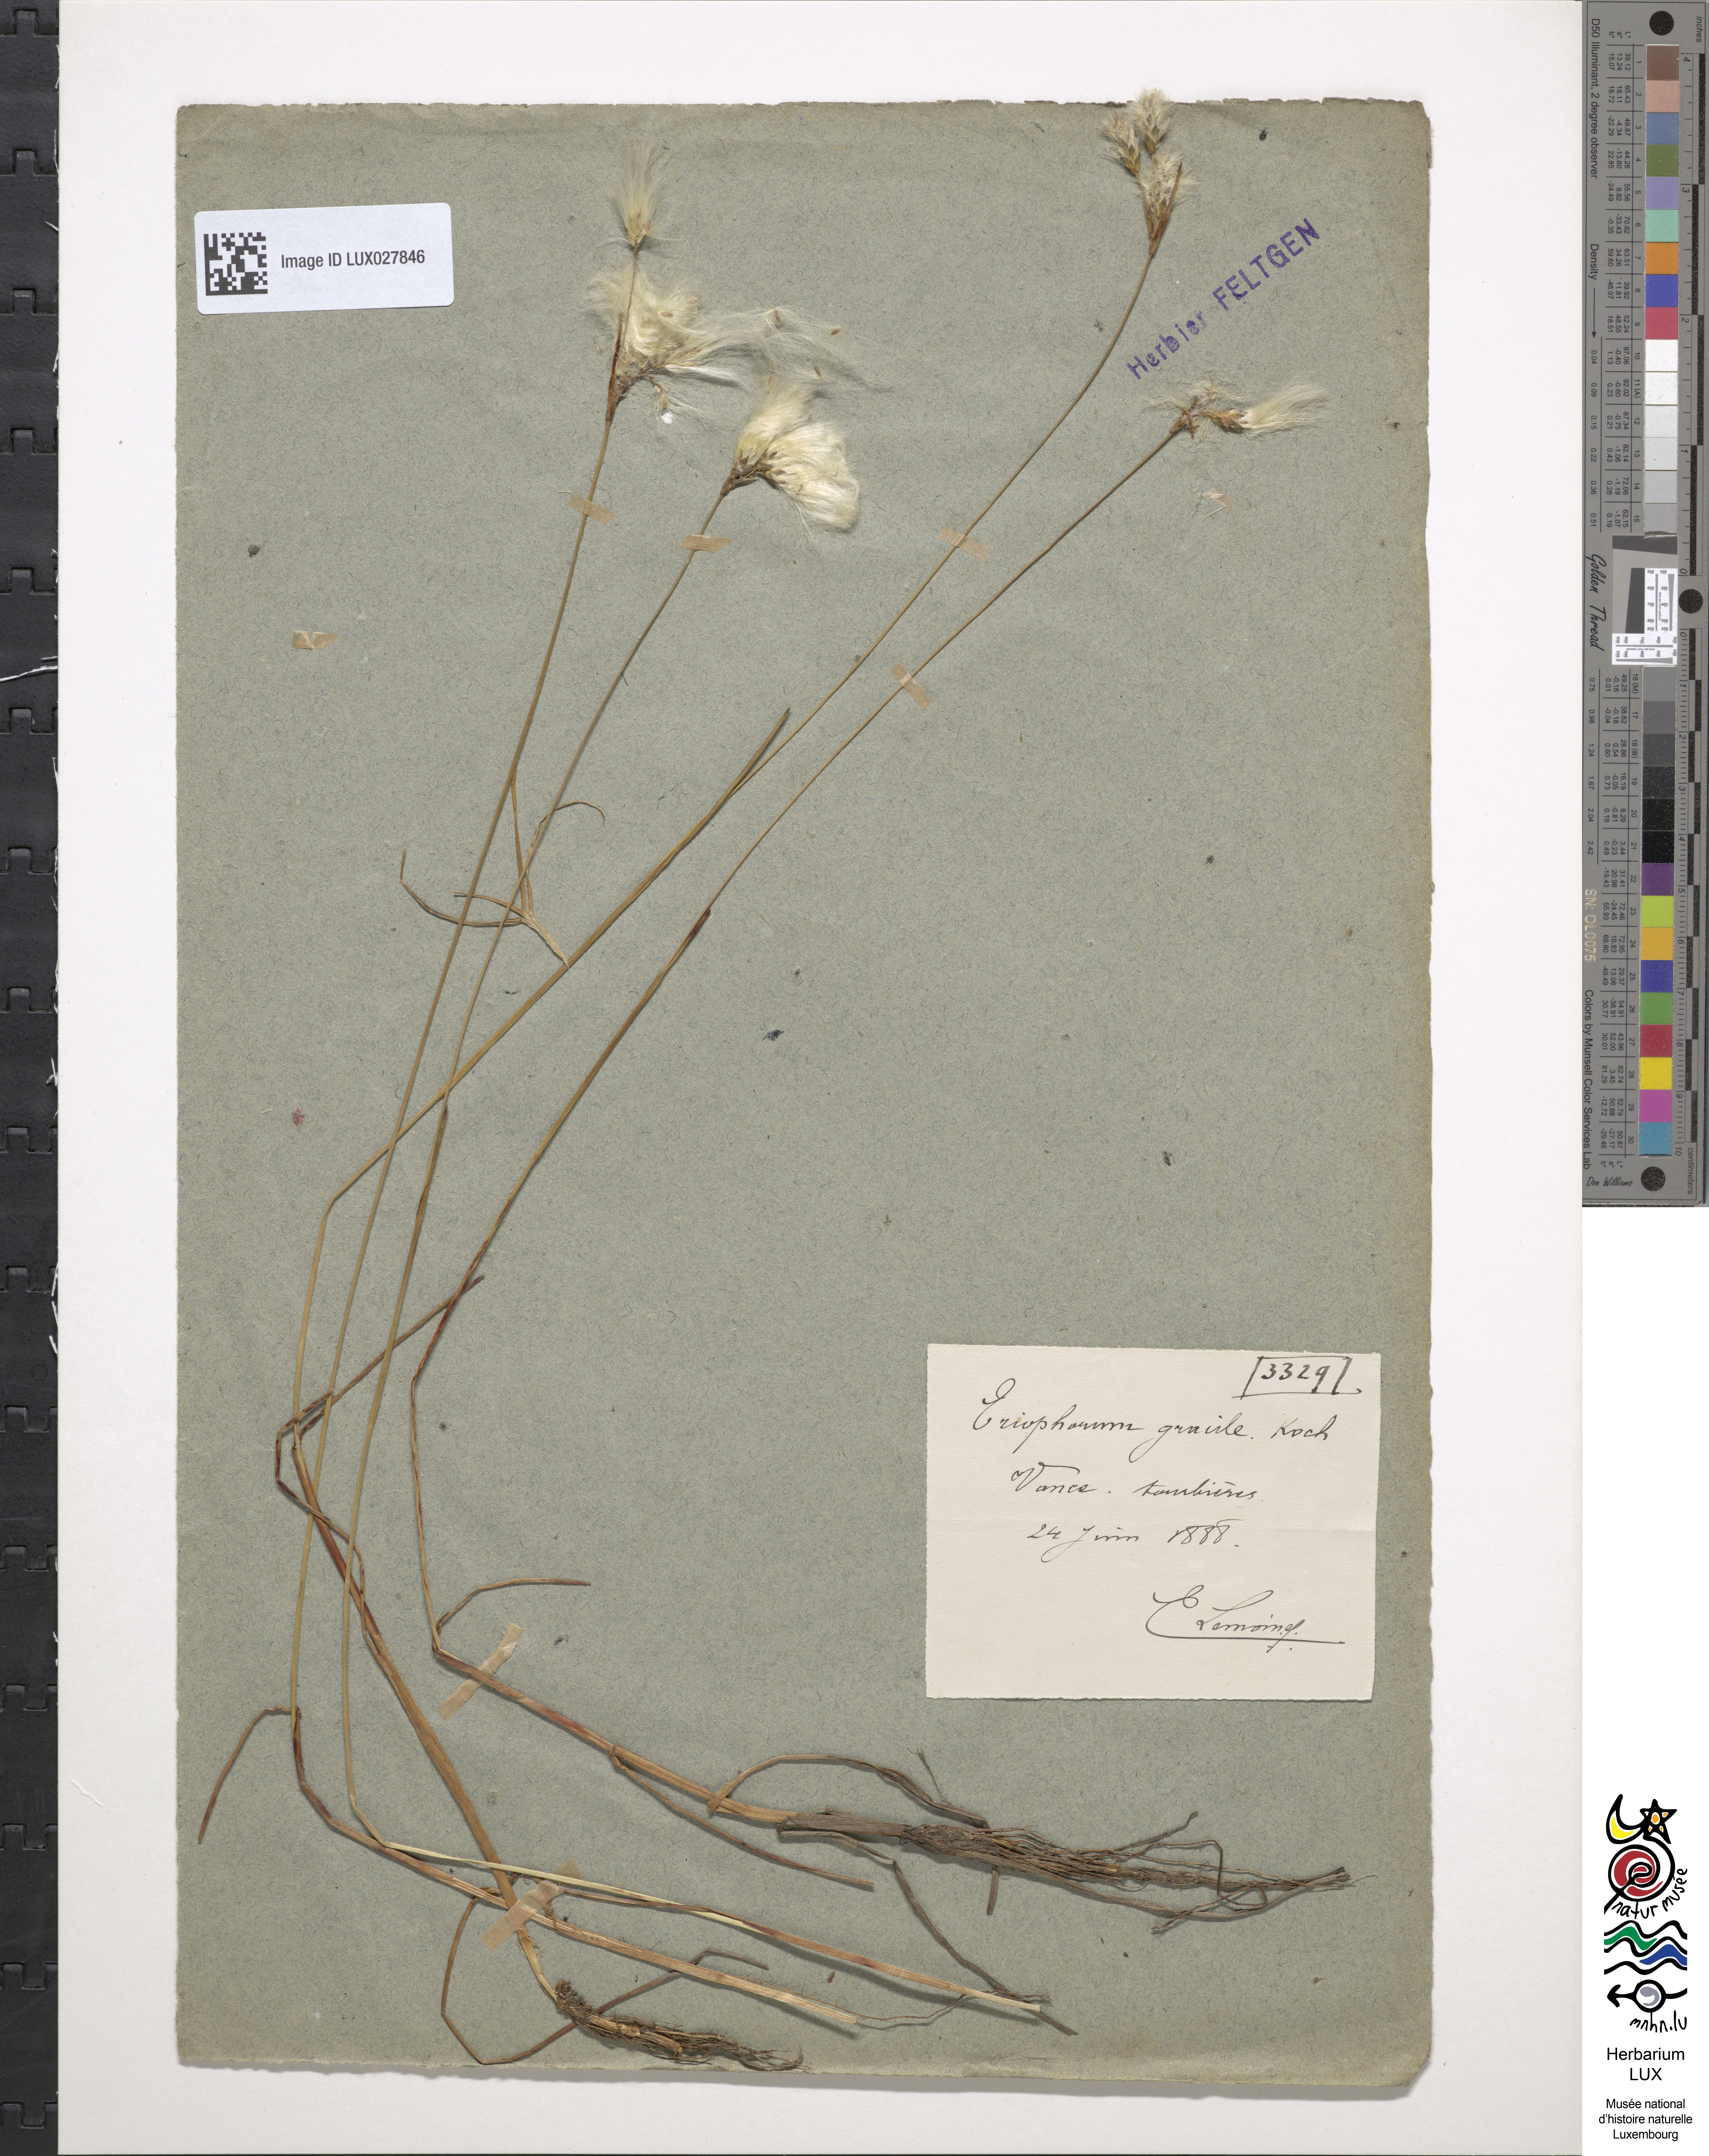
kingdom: Plantae
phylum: Tracheophyta
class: Liliopsida
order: Poales
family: Cyperaceae
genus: Eriophorum
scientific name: Eriophorum gracile
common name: Slender cottongrass
